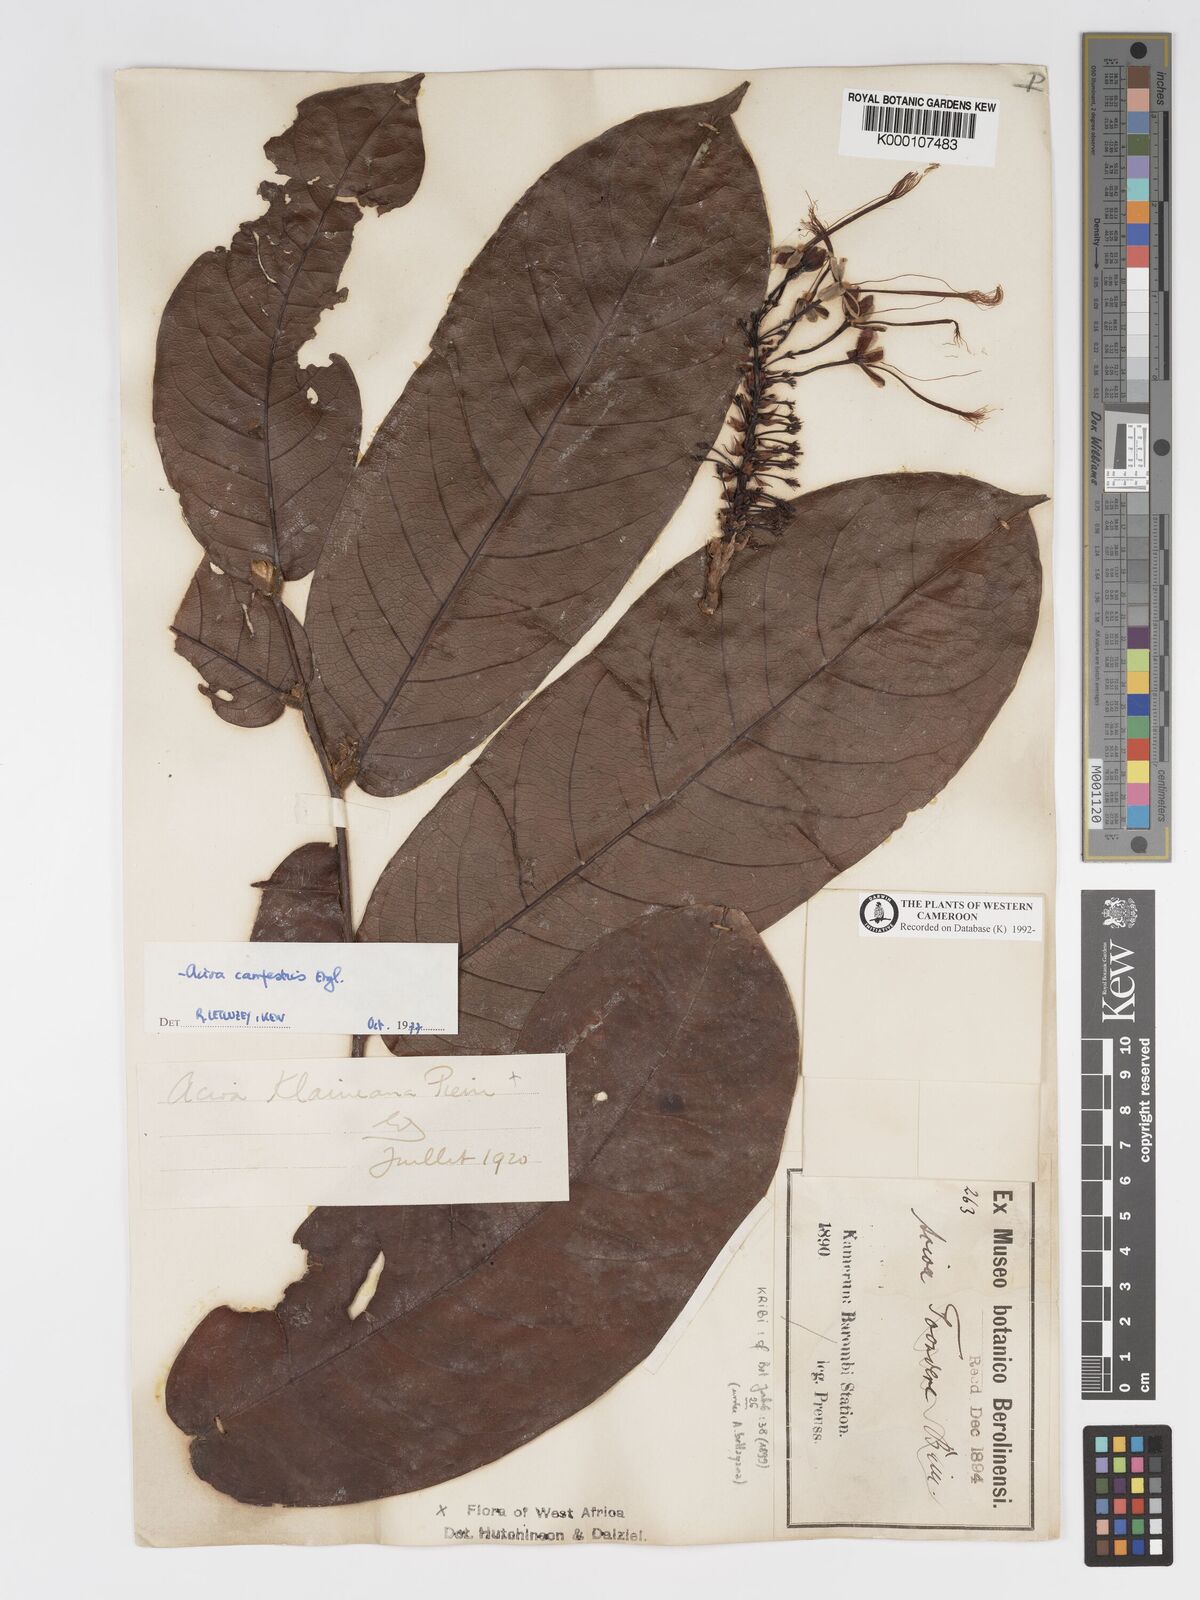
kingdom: Plantae
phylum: Tracheophyta
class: Magnoliopsida
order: Malpighiales
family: Chrysobalanaceae
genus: Dactyladenia
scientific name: Dactyladenia campestris
